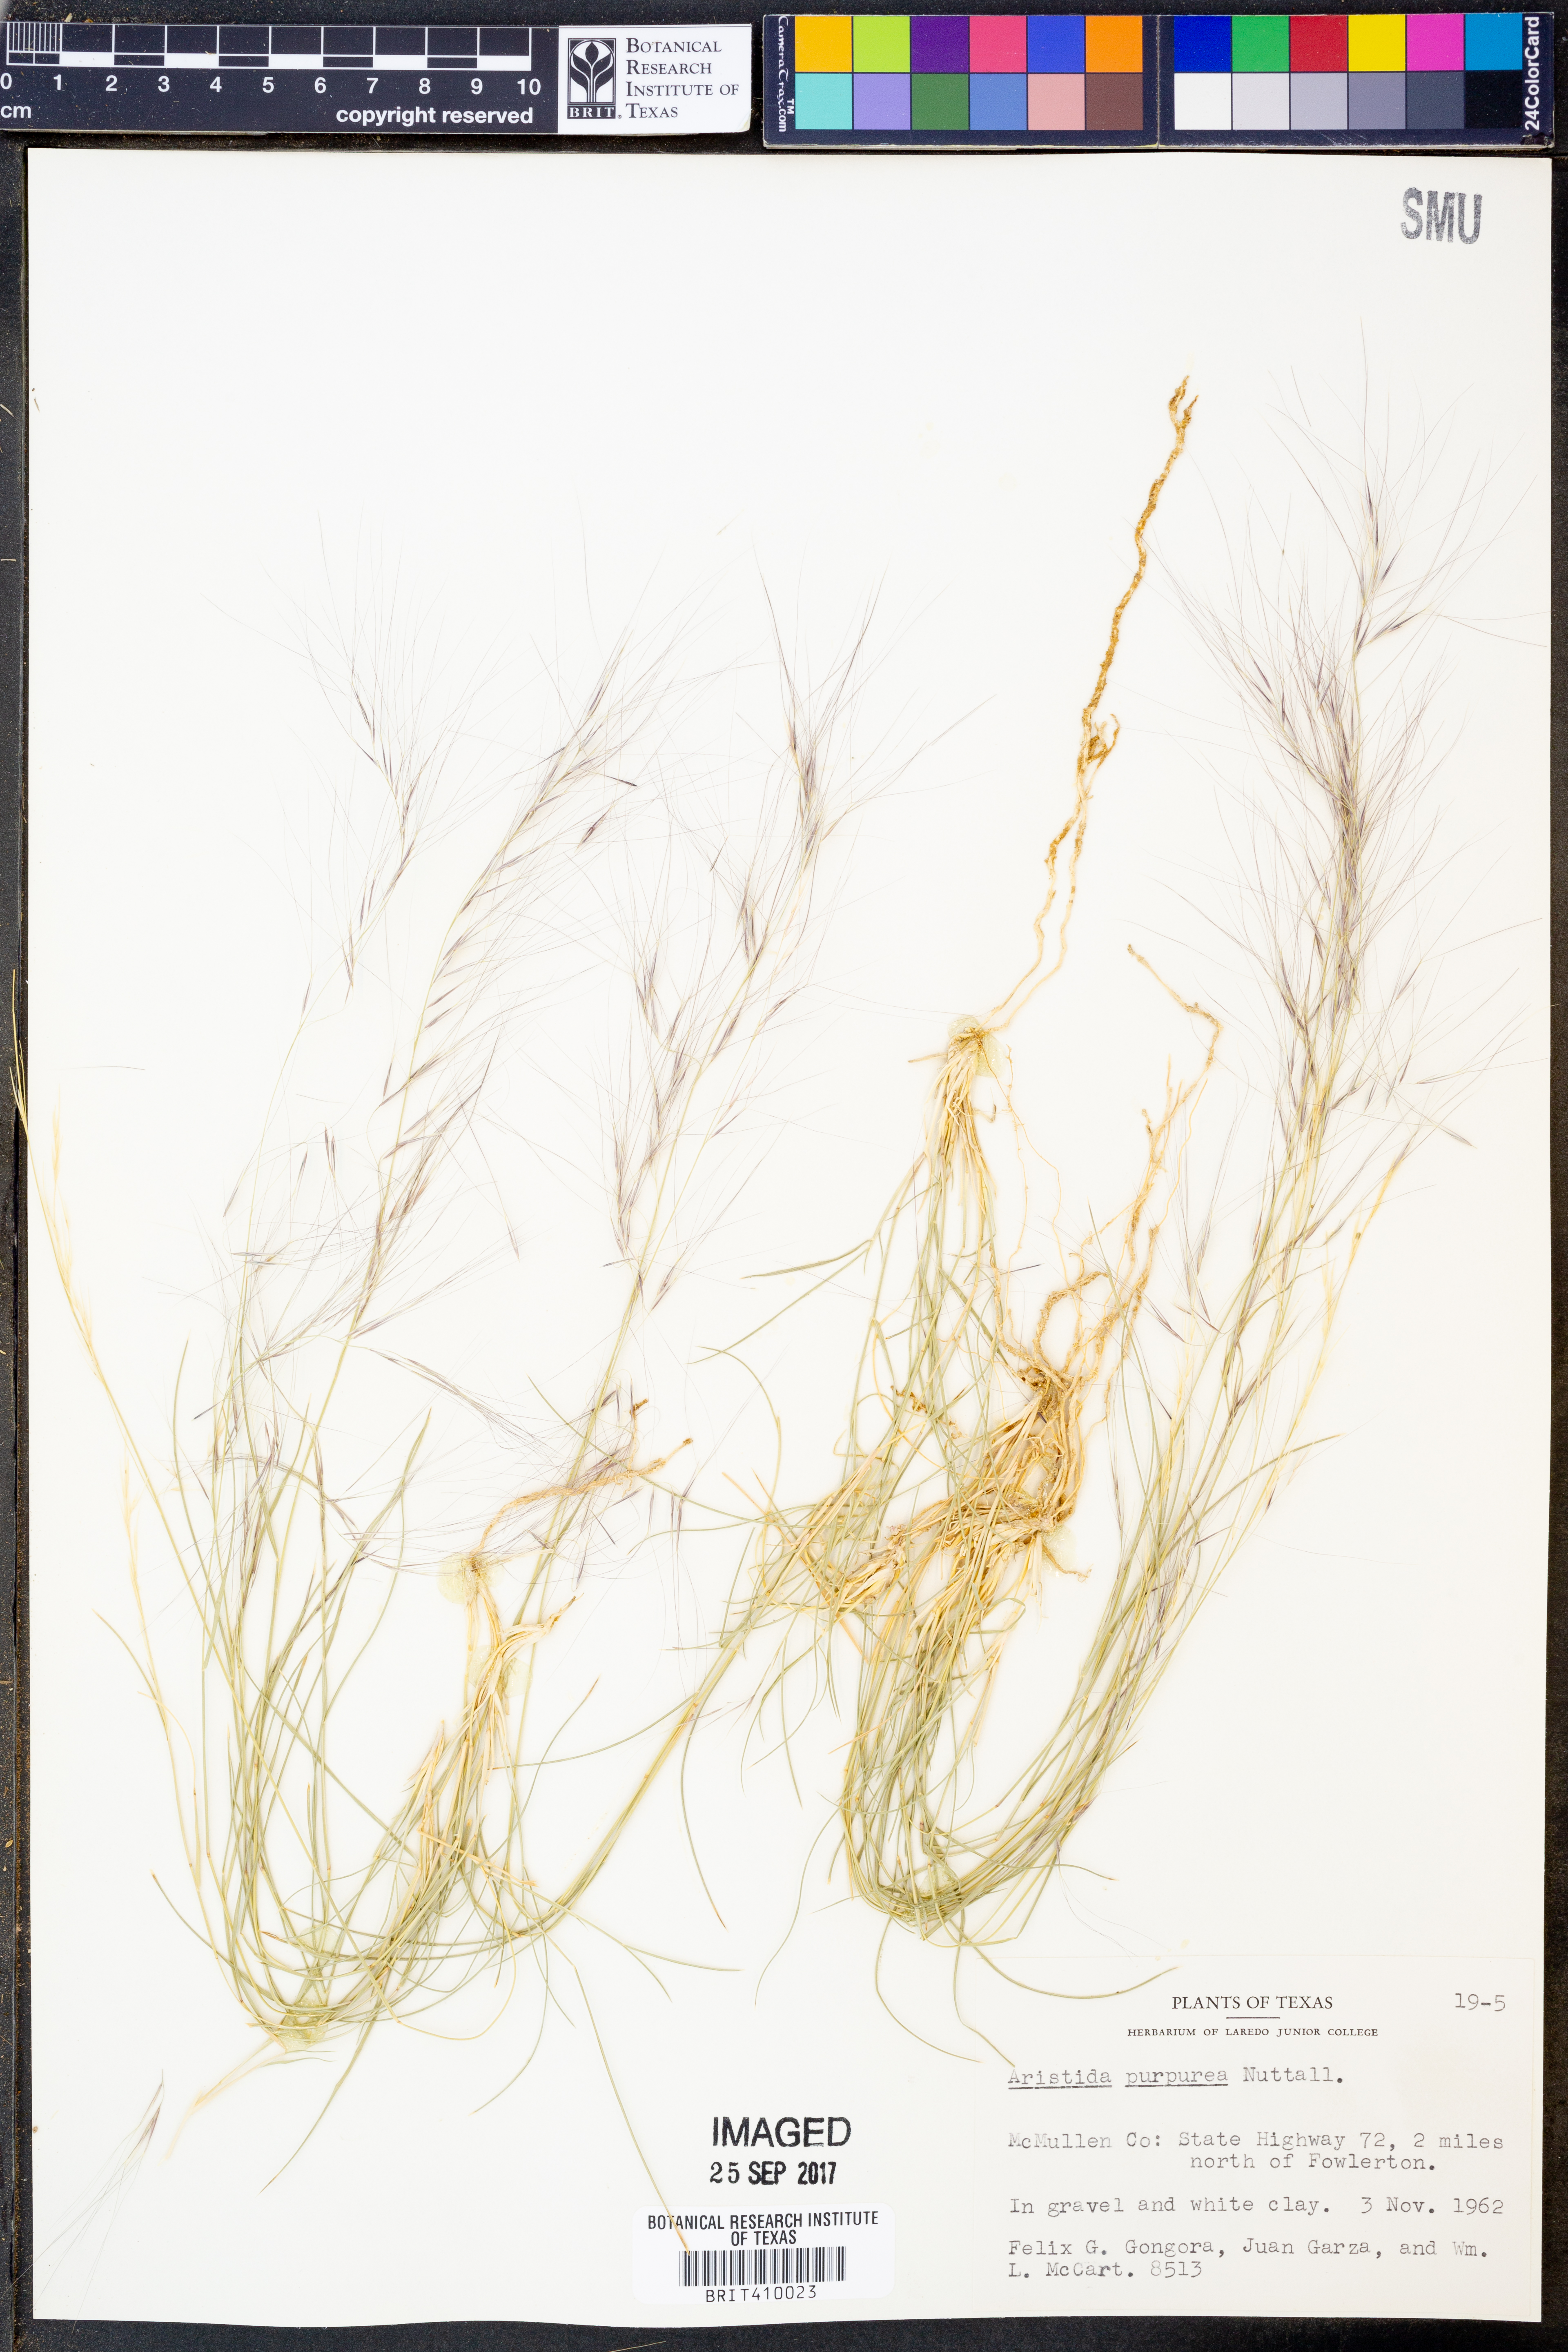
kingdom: Plantae
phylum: Tracheophyta
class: Liliopsida
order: Poales
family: Poaceae
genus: Aristida
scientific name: Aristida purpurea
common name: Purple threeawn
